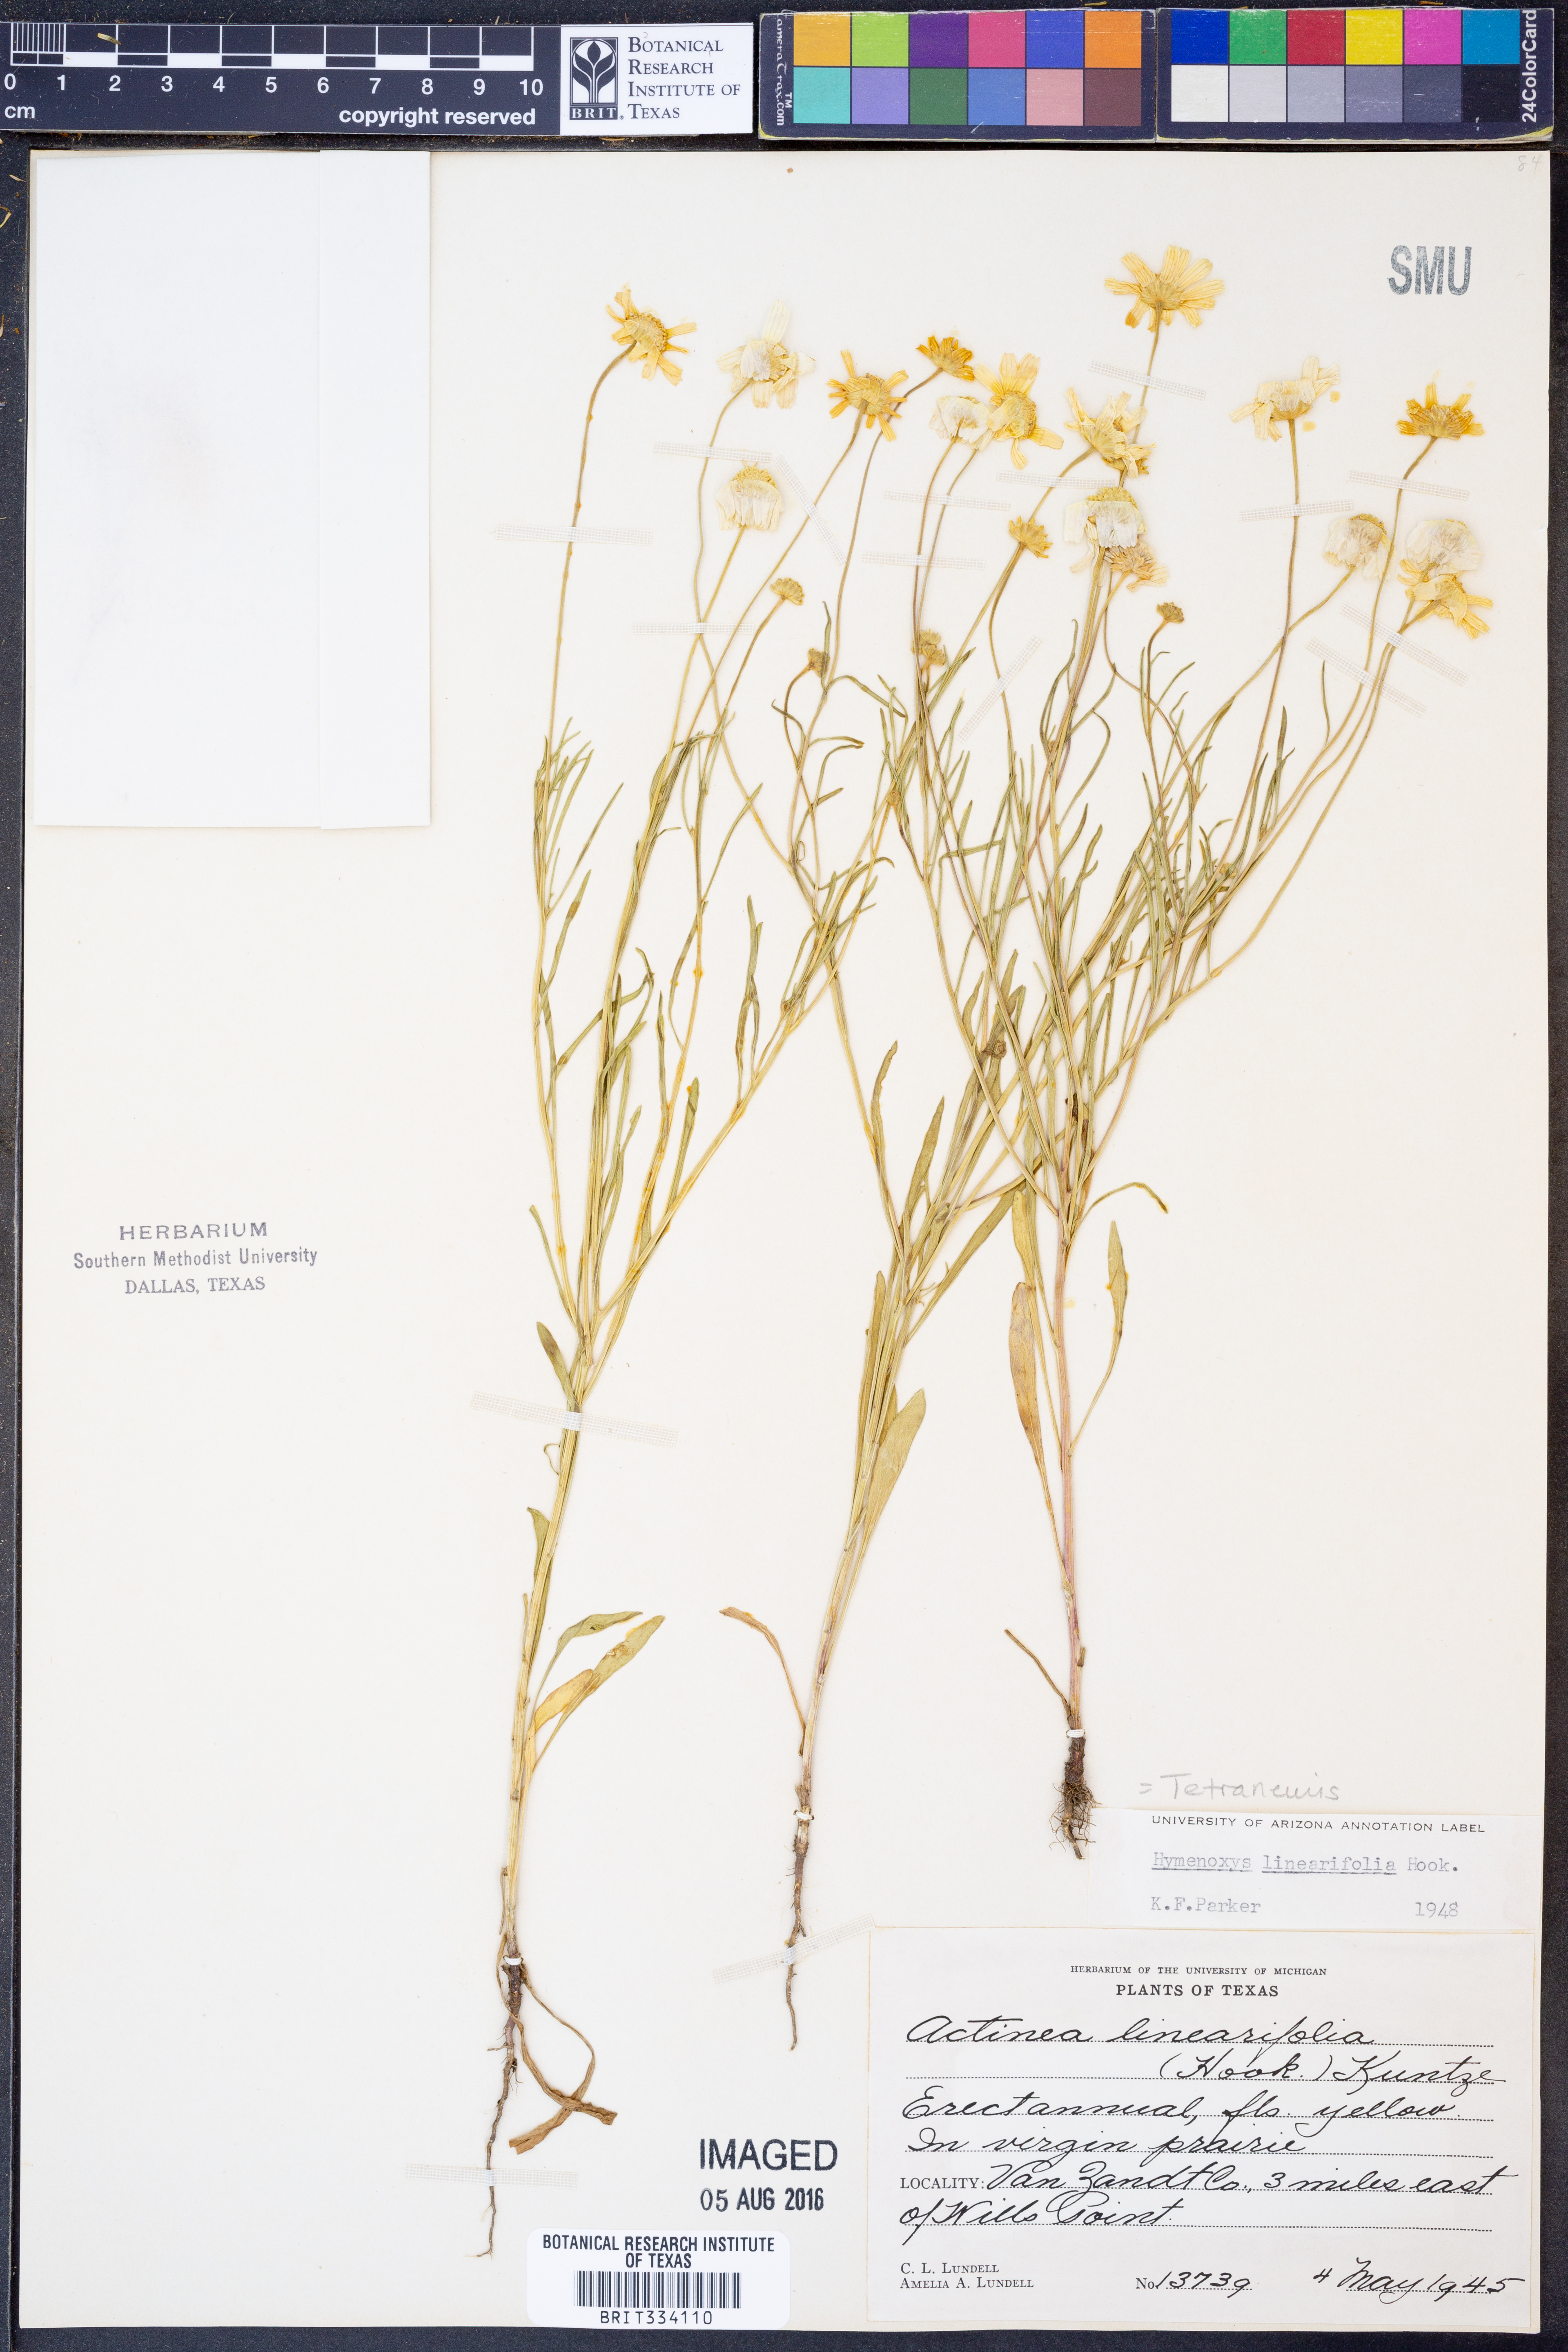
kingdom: Plantae
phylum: Tracheophyta
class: Magnoliopsida
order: Asterales
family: Asteraceae
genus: Tetraneuris
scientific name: Tetraneuris linearifolia
